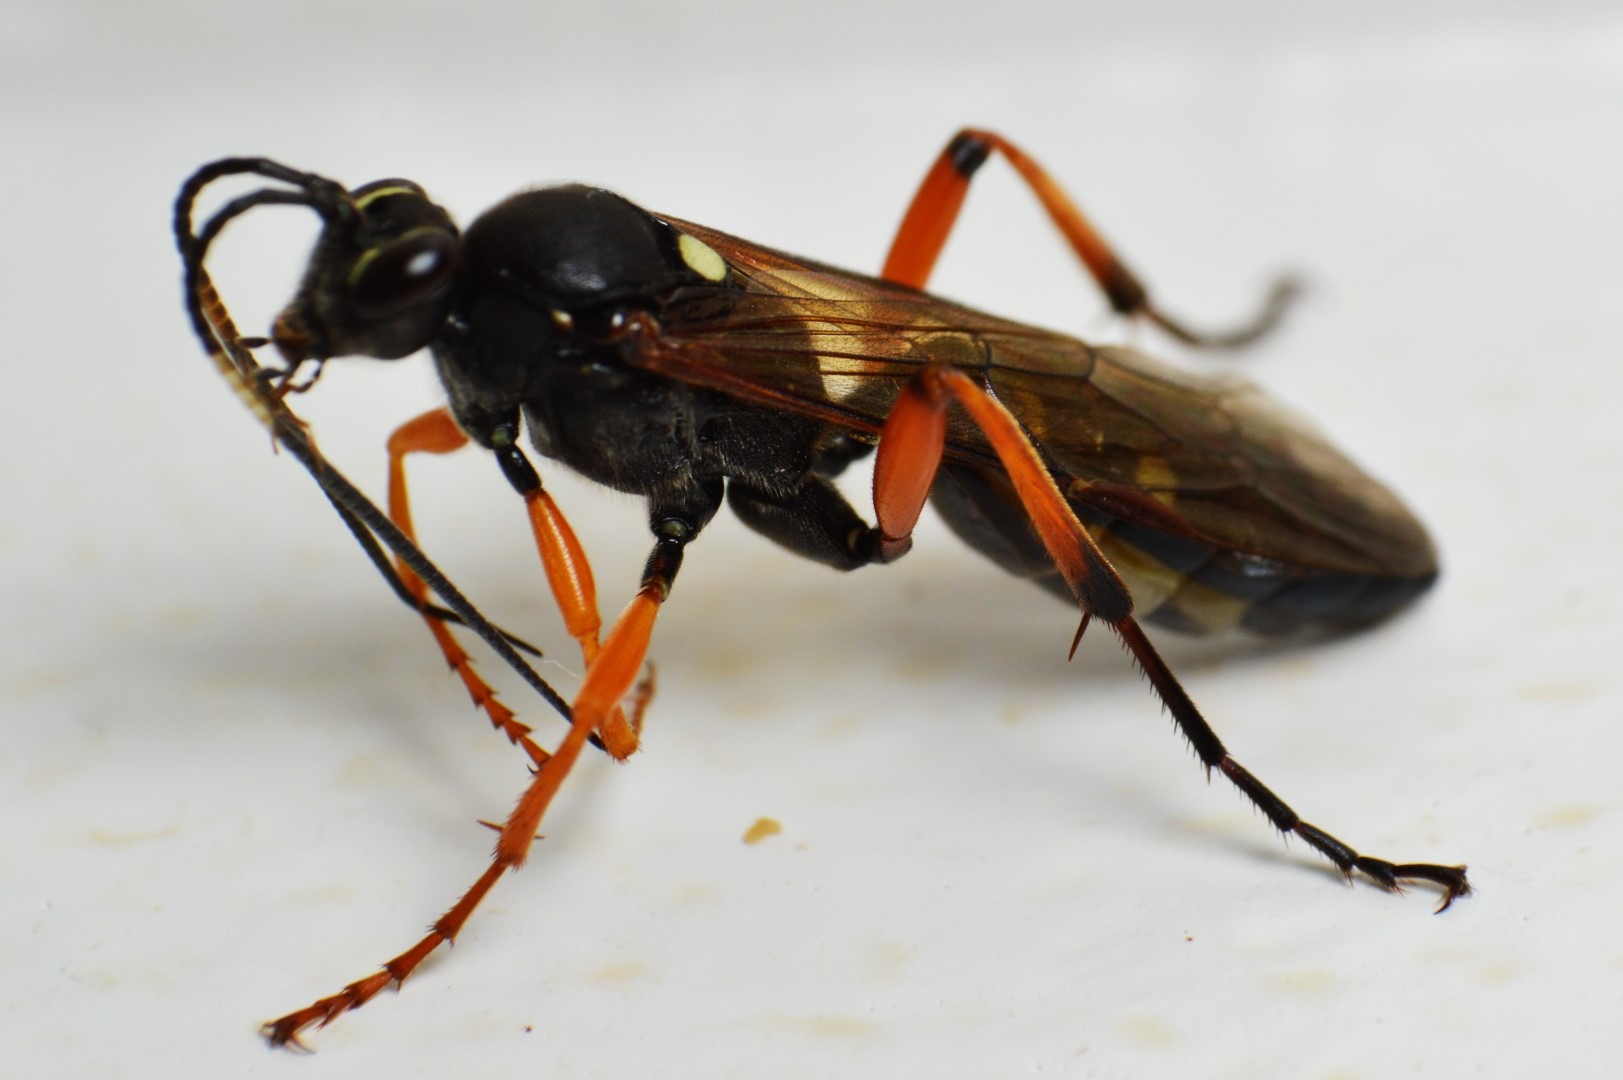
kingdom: Animalia
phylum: Arthropoda
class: Insecta
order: Hymenoptera
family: Ichneumonidae
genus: Diphyus
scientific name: Diphyus quadripunctorius
